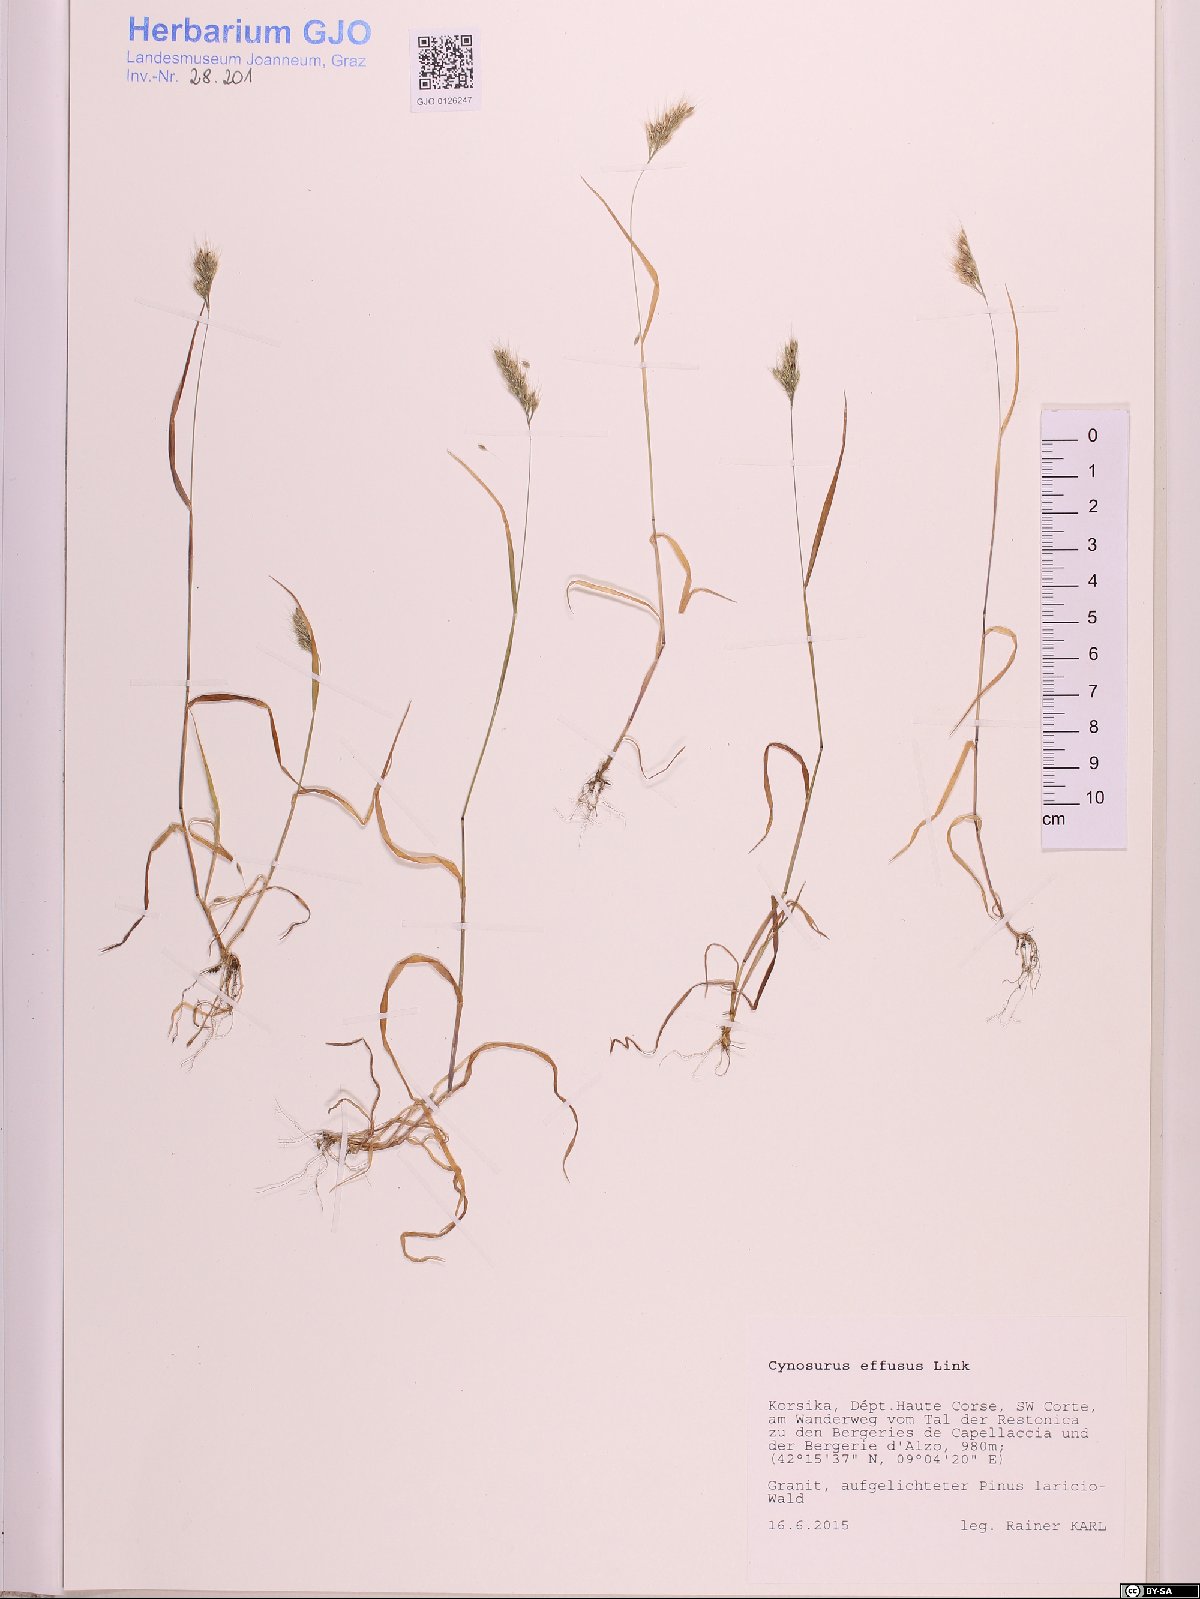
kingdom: Plantae
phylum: Tracheophyta
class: Liliopsida
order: Poales
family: Poaceae
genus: Cynosurus
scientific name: Cynosurus effusus
